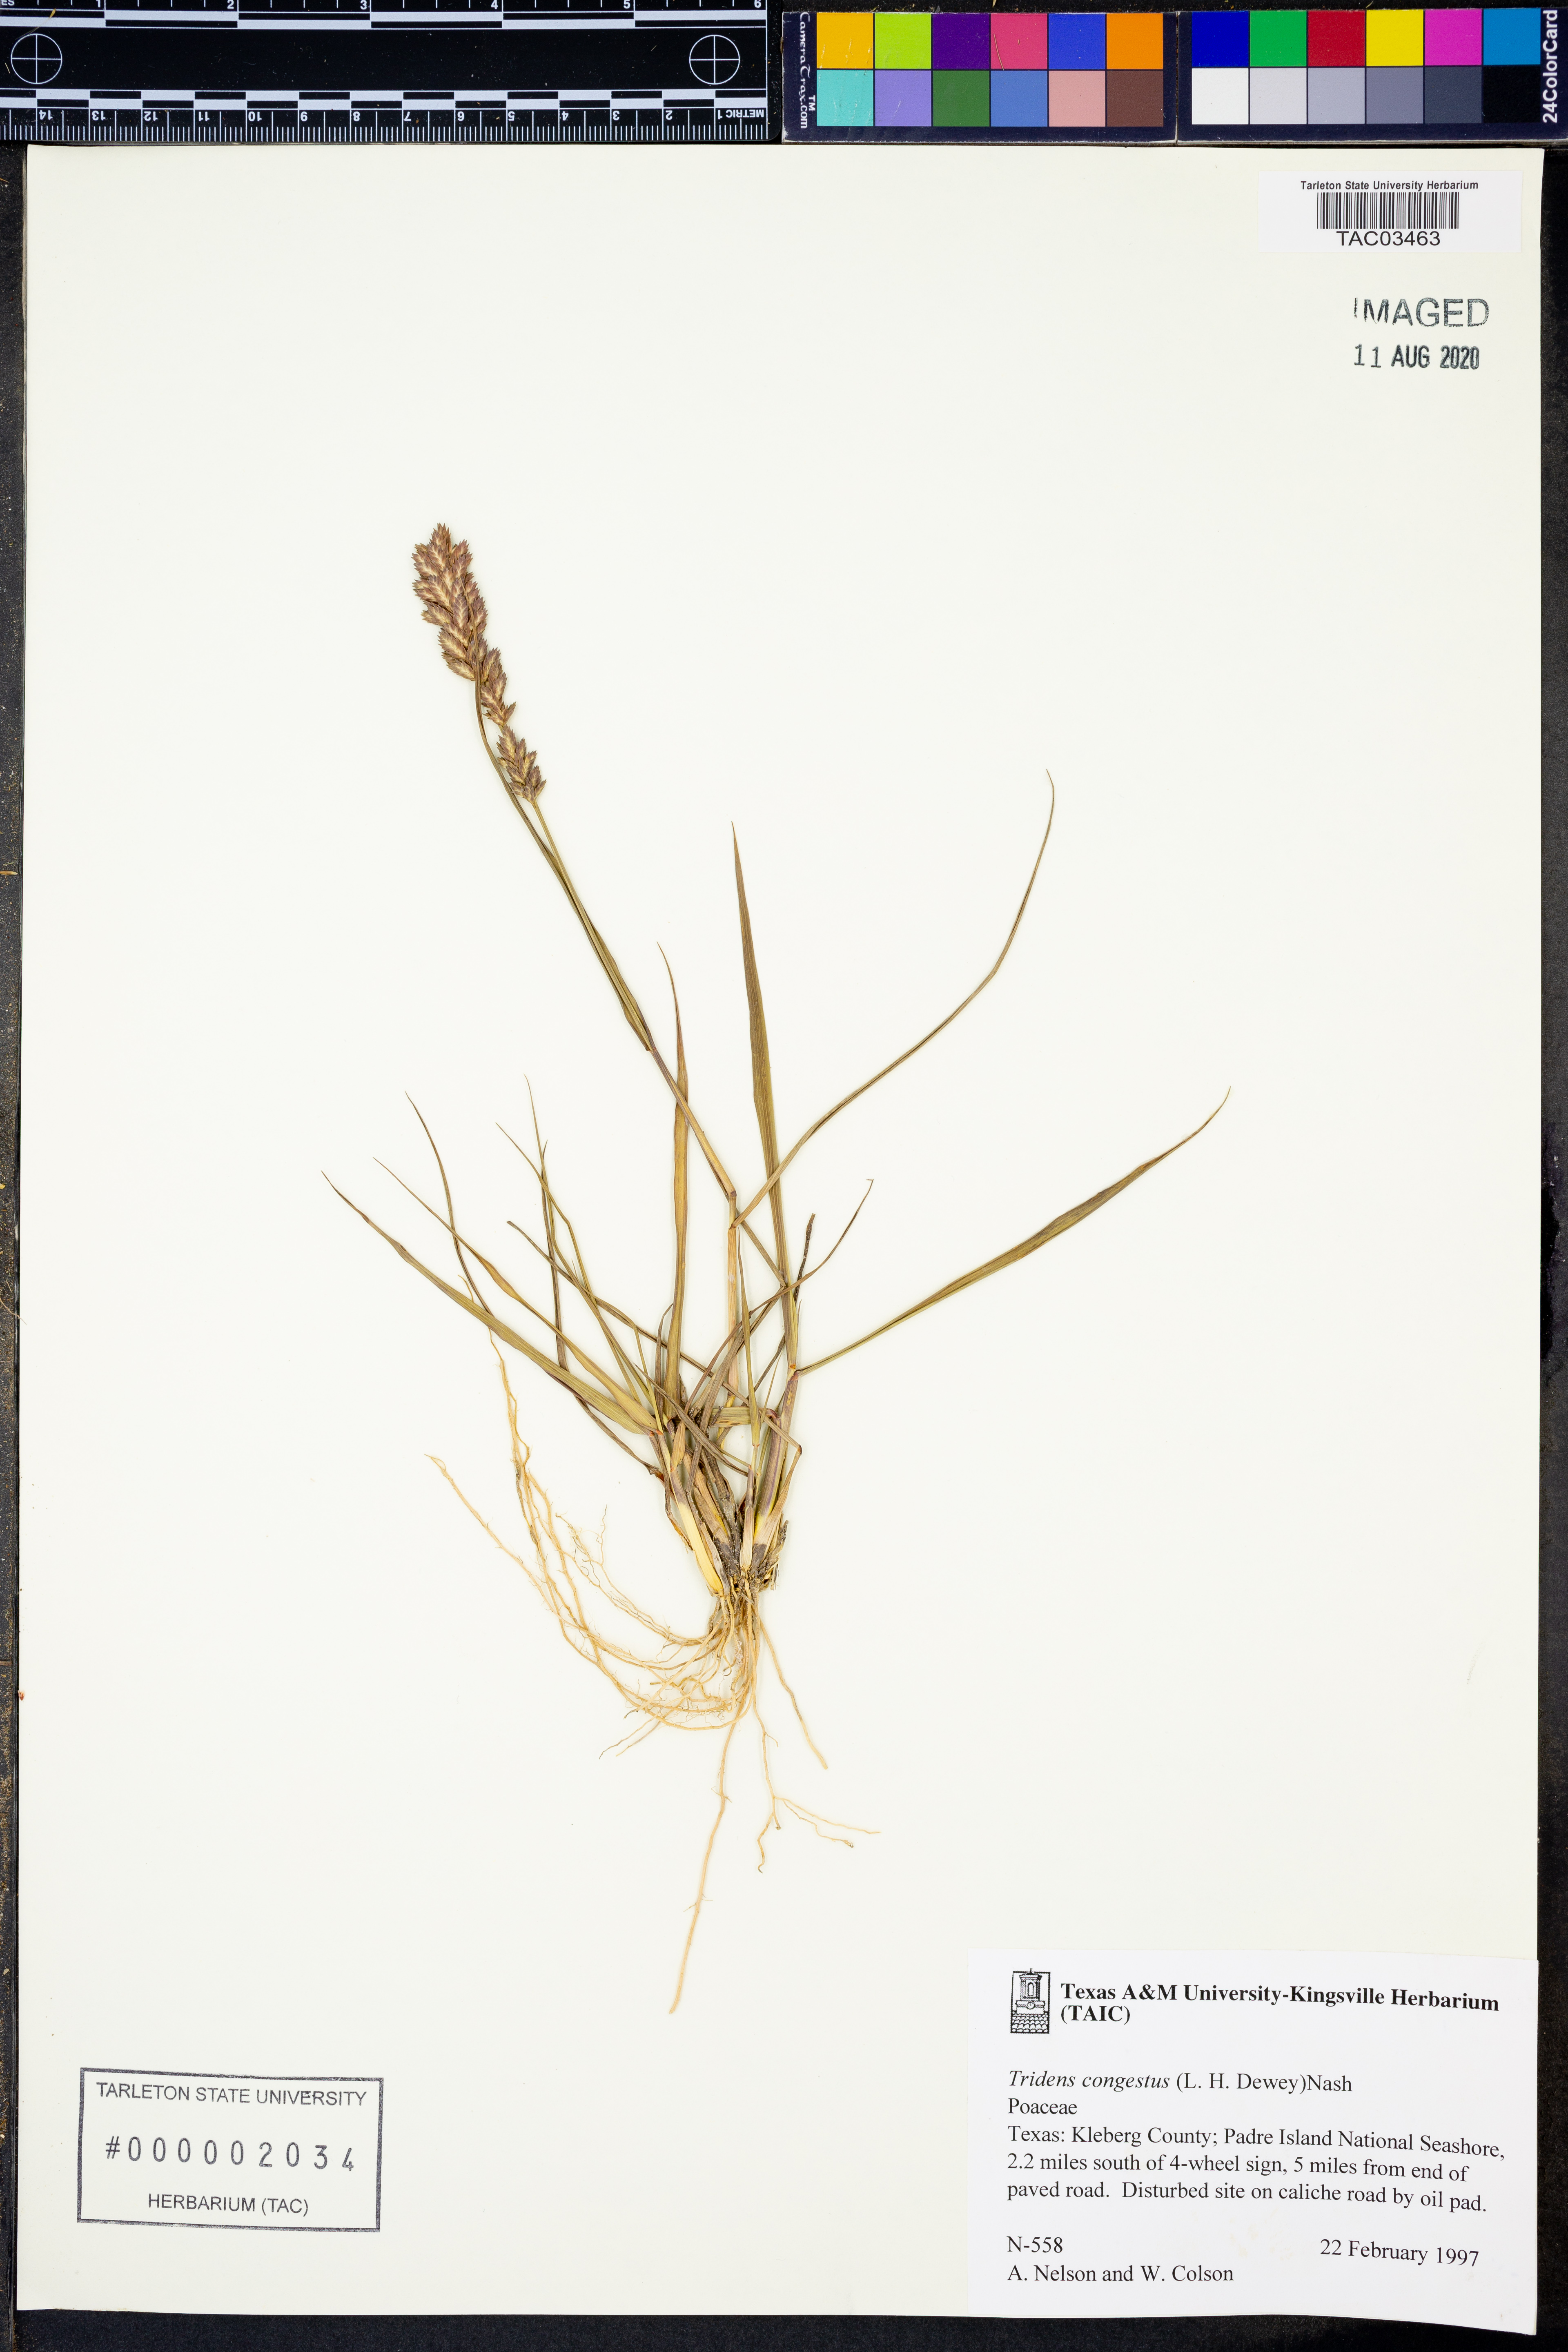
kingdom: Plantae
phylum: Tracheophyta
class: Liliopsida
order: Poales
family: Poaceae
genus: Tridens
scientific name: Tridens congestus
